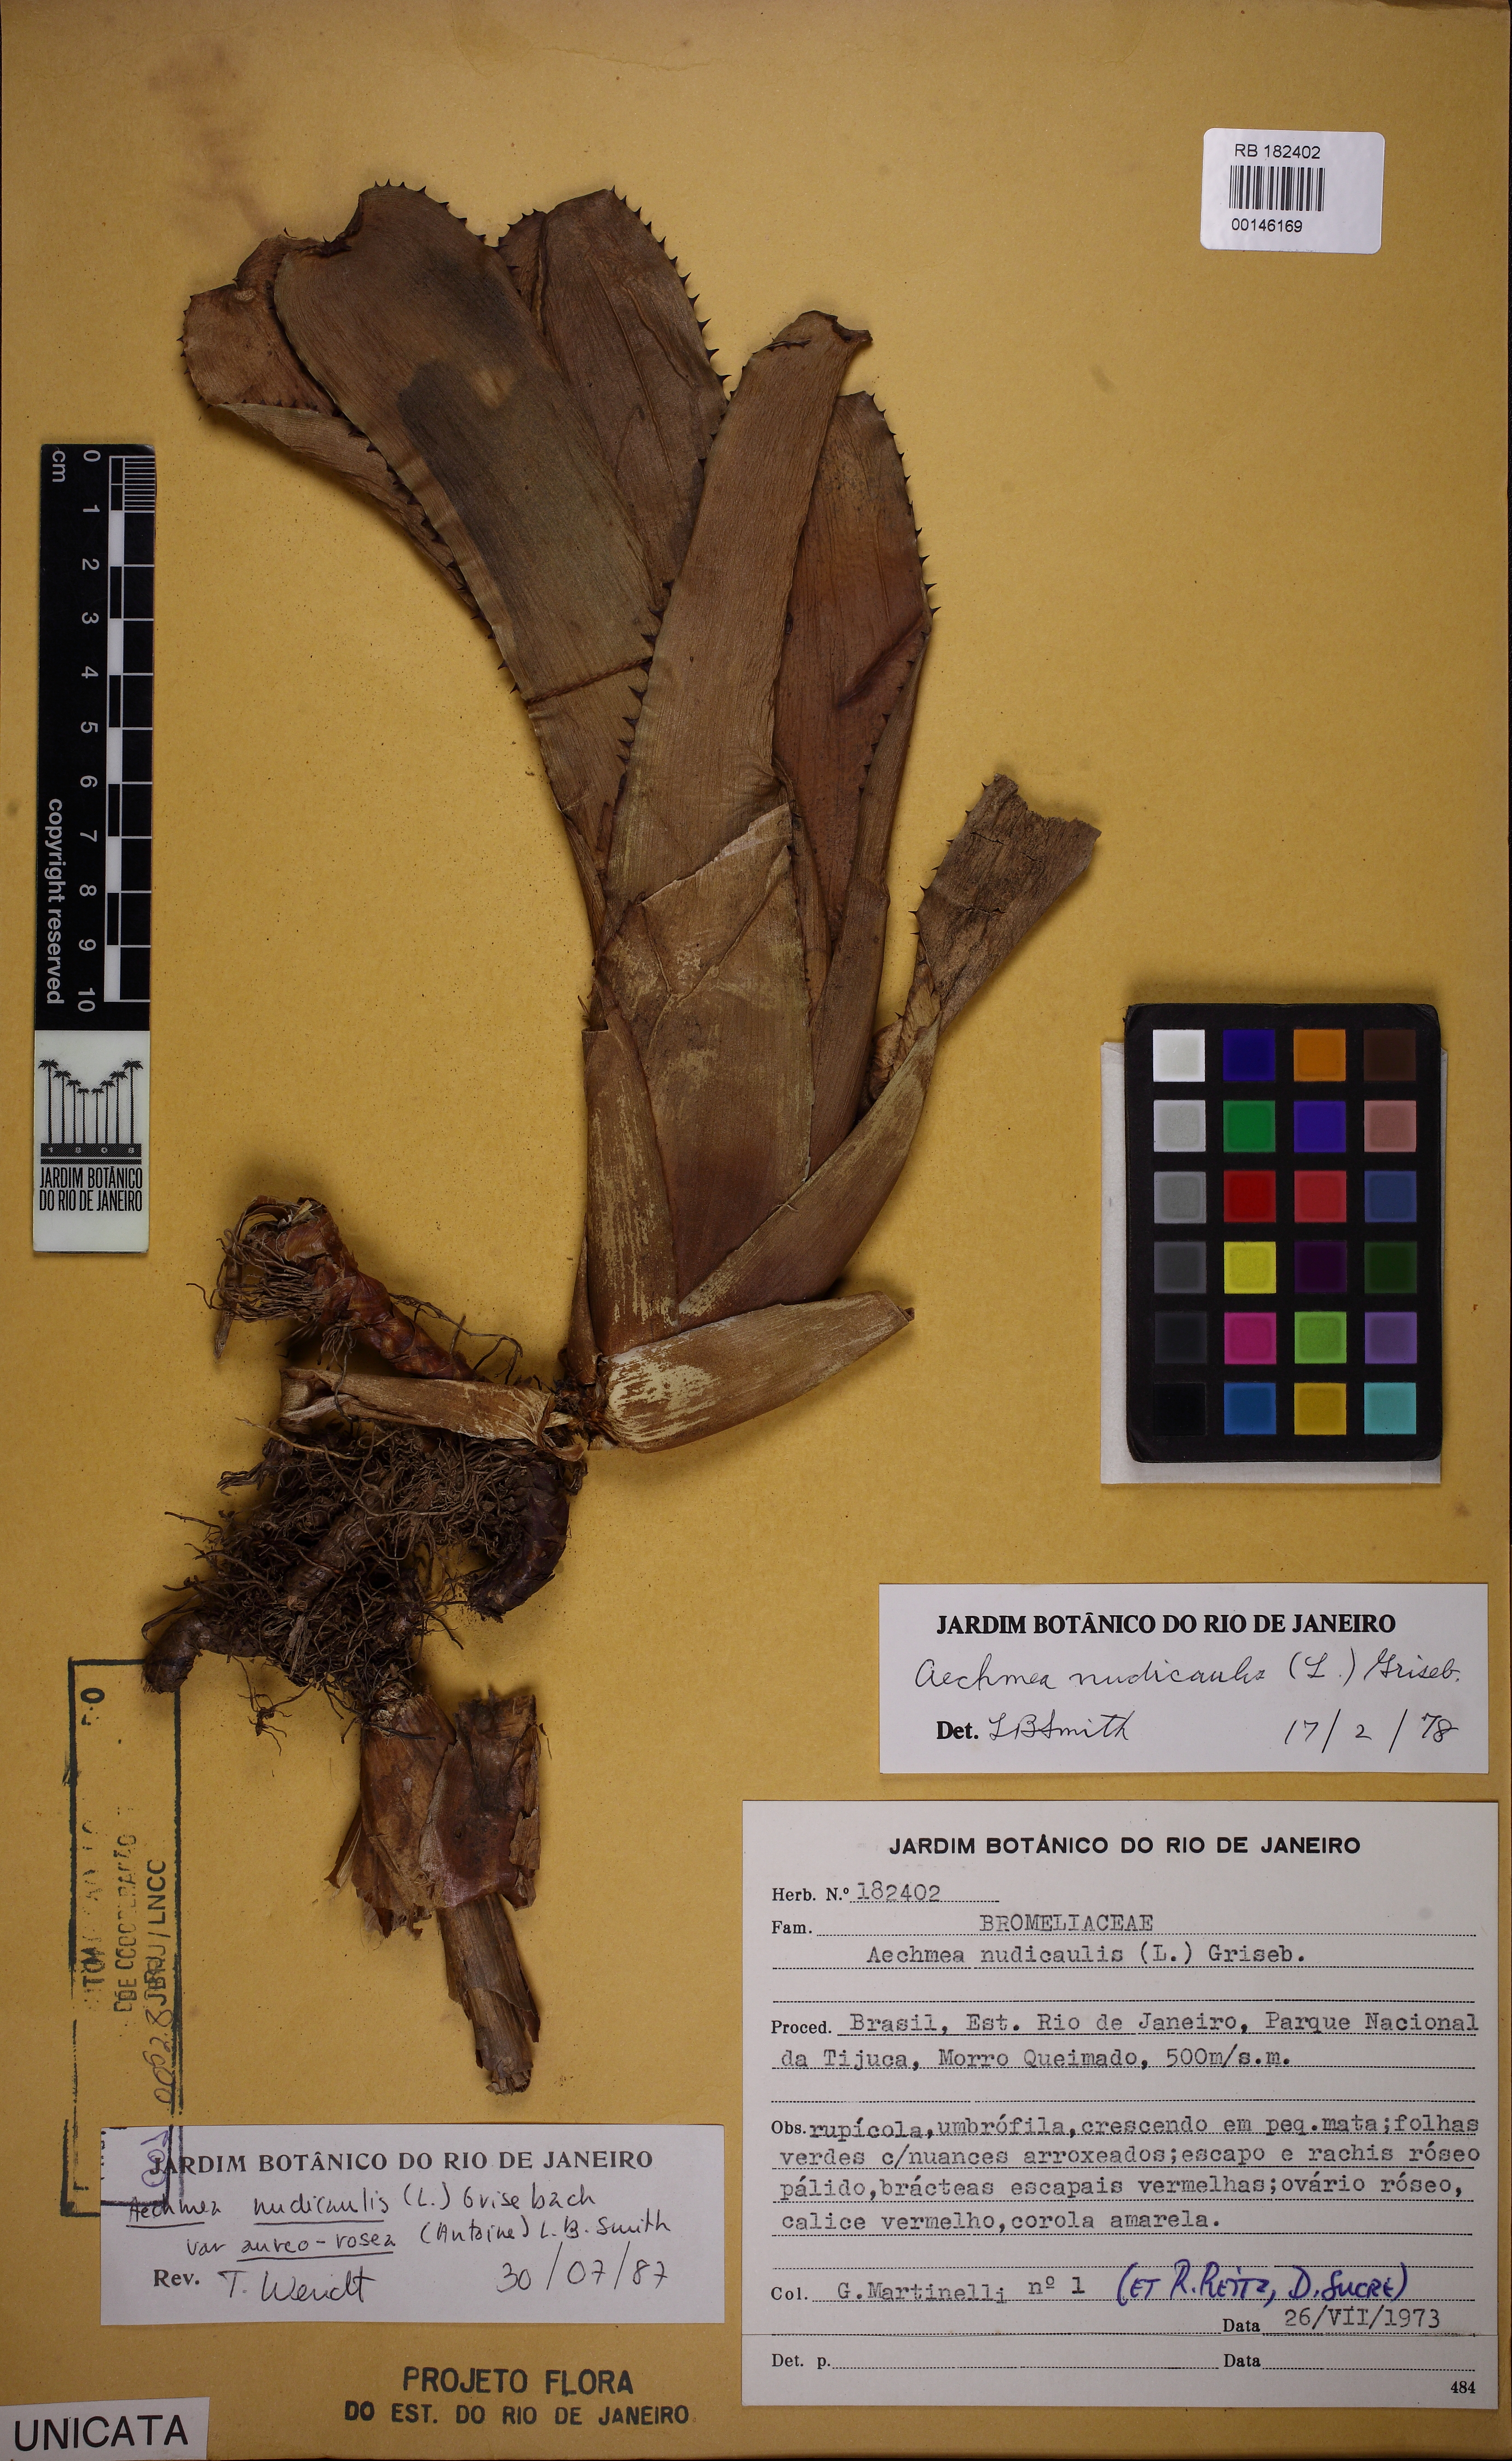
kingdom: Plantae
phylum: Tracheophyta
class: Liliopsida
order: Poales
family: Bromeliaceae
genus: Aechmea
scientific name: Aechmea nudicaulis
